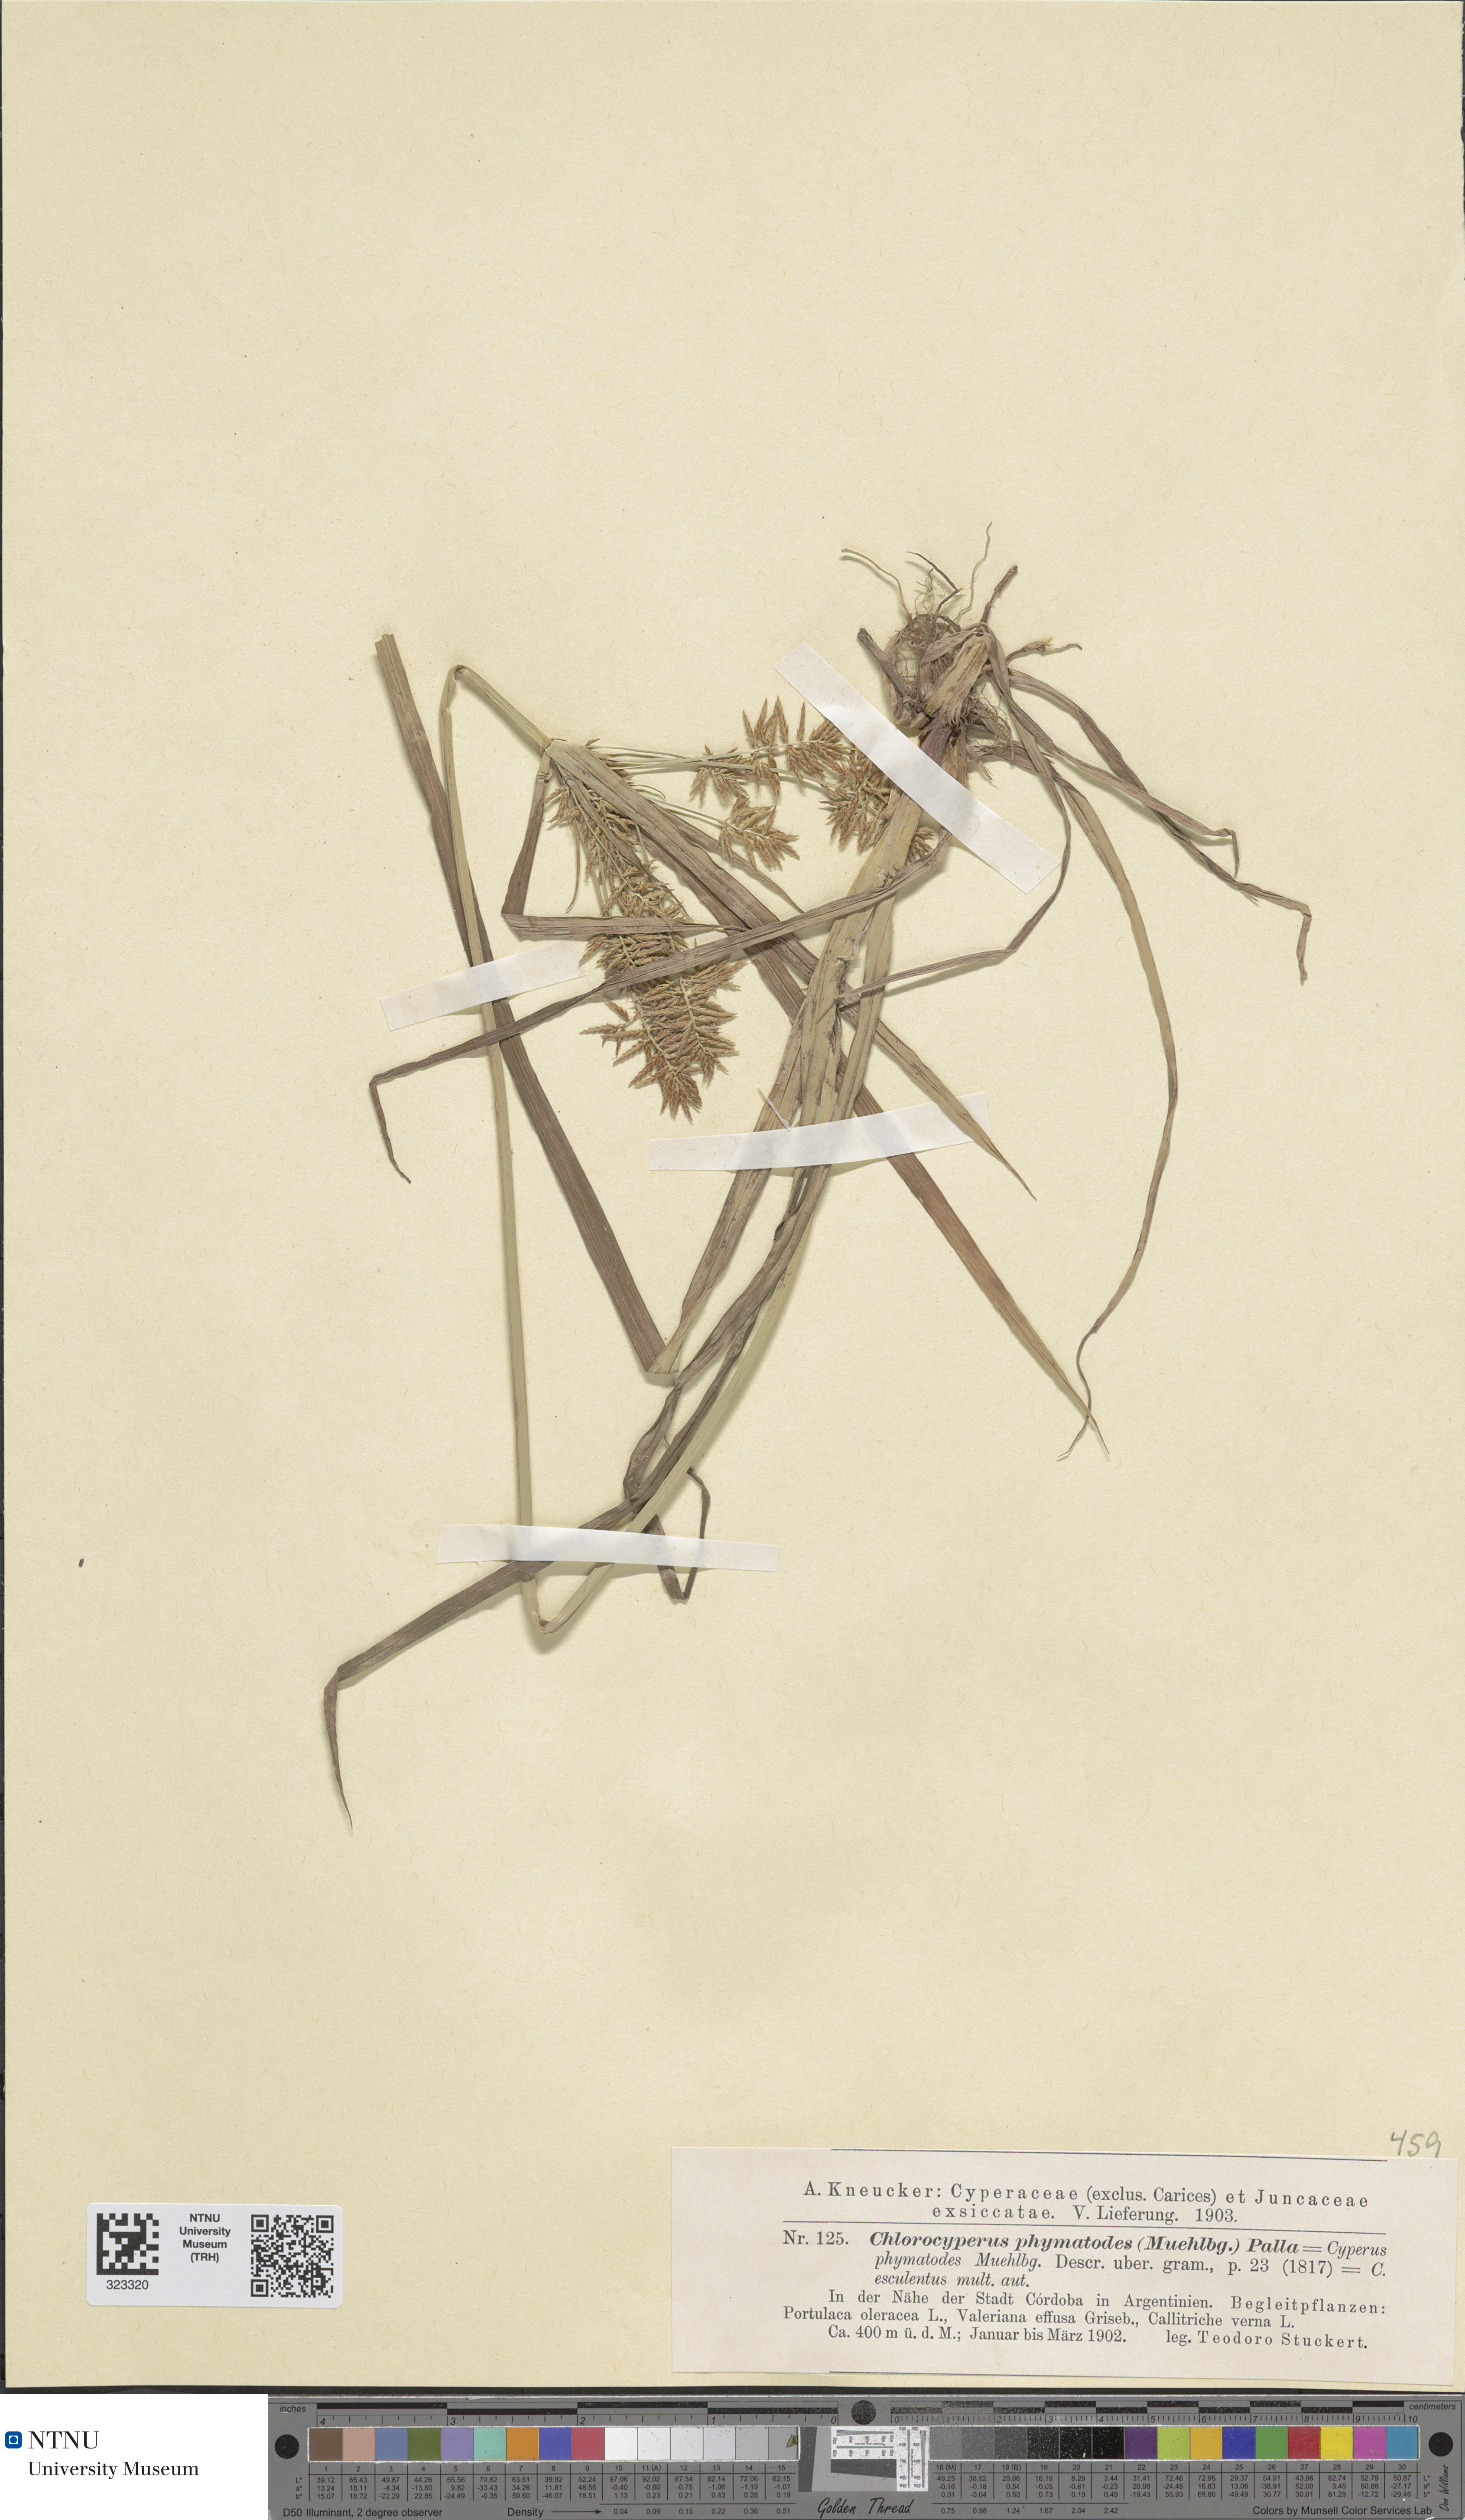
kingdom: Plantae
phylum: Tracheophyta
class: Liliopsida
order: Poales
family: Cyperaceae
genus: Cyperus
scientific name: Cyperus esculentus
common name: Yellow nutsedge
